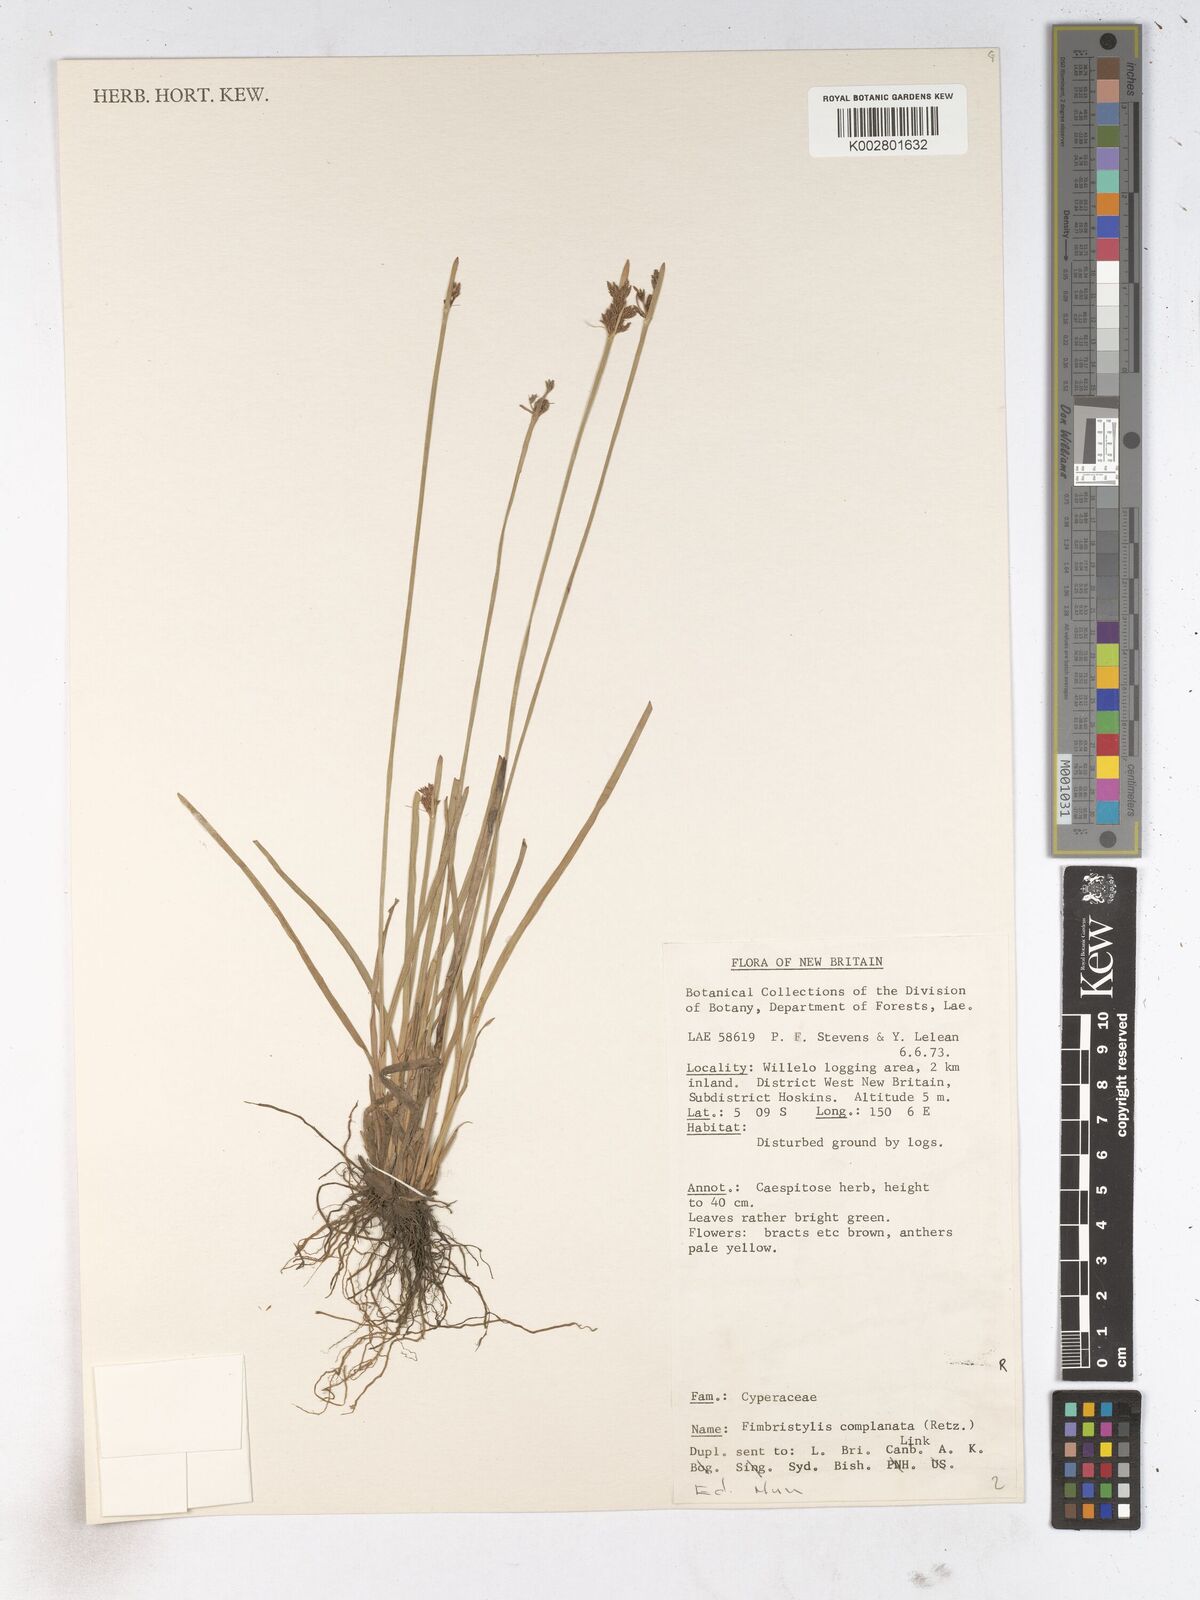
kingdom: Plantae
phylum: Tracheophyta
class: Liliopsida
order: Poales
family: Cyperaceae
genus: Fimbristylis
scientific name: Fimbristylis complanata
